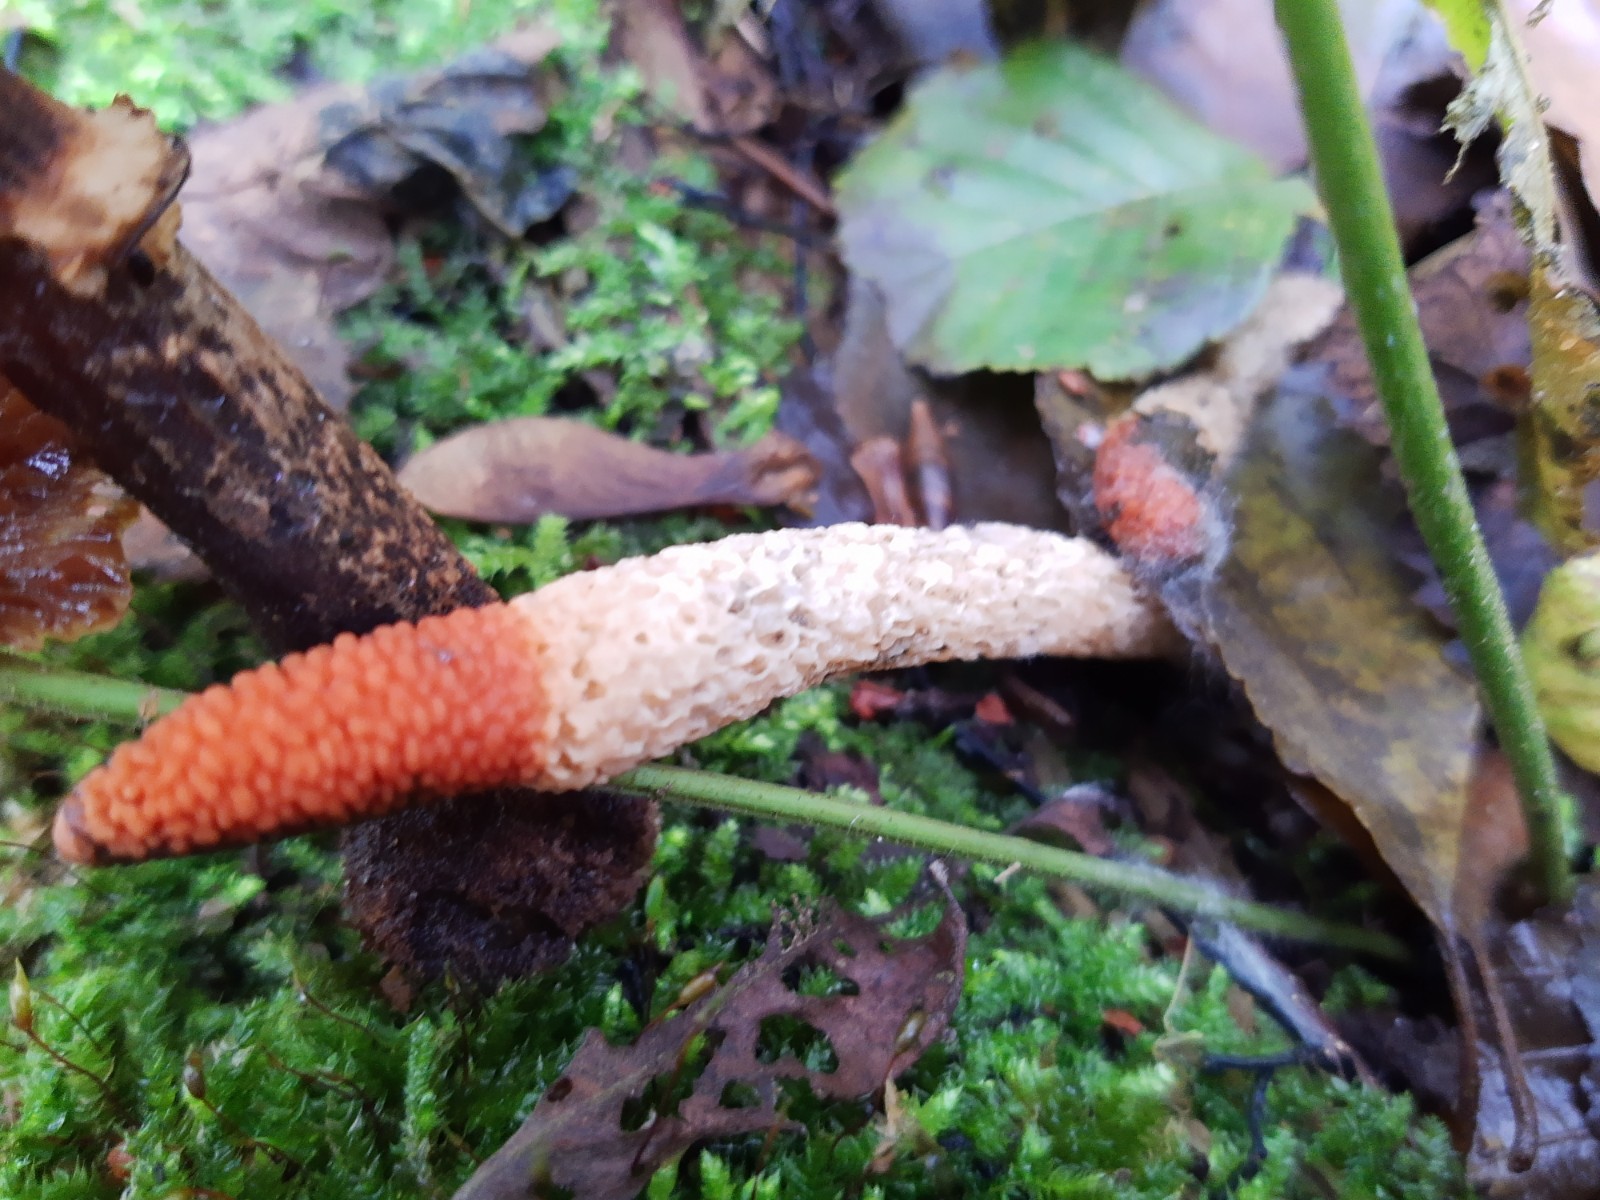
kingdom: Fungi
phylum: Basidiomycota
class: Agaricomycetes
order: Phallales
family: Phallaceae
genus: Mutinus
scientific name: Mutinus caninus
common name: hunde-stinksvamp
